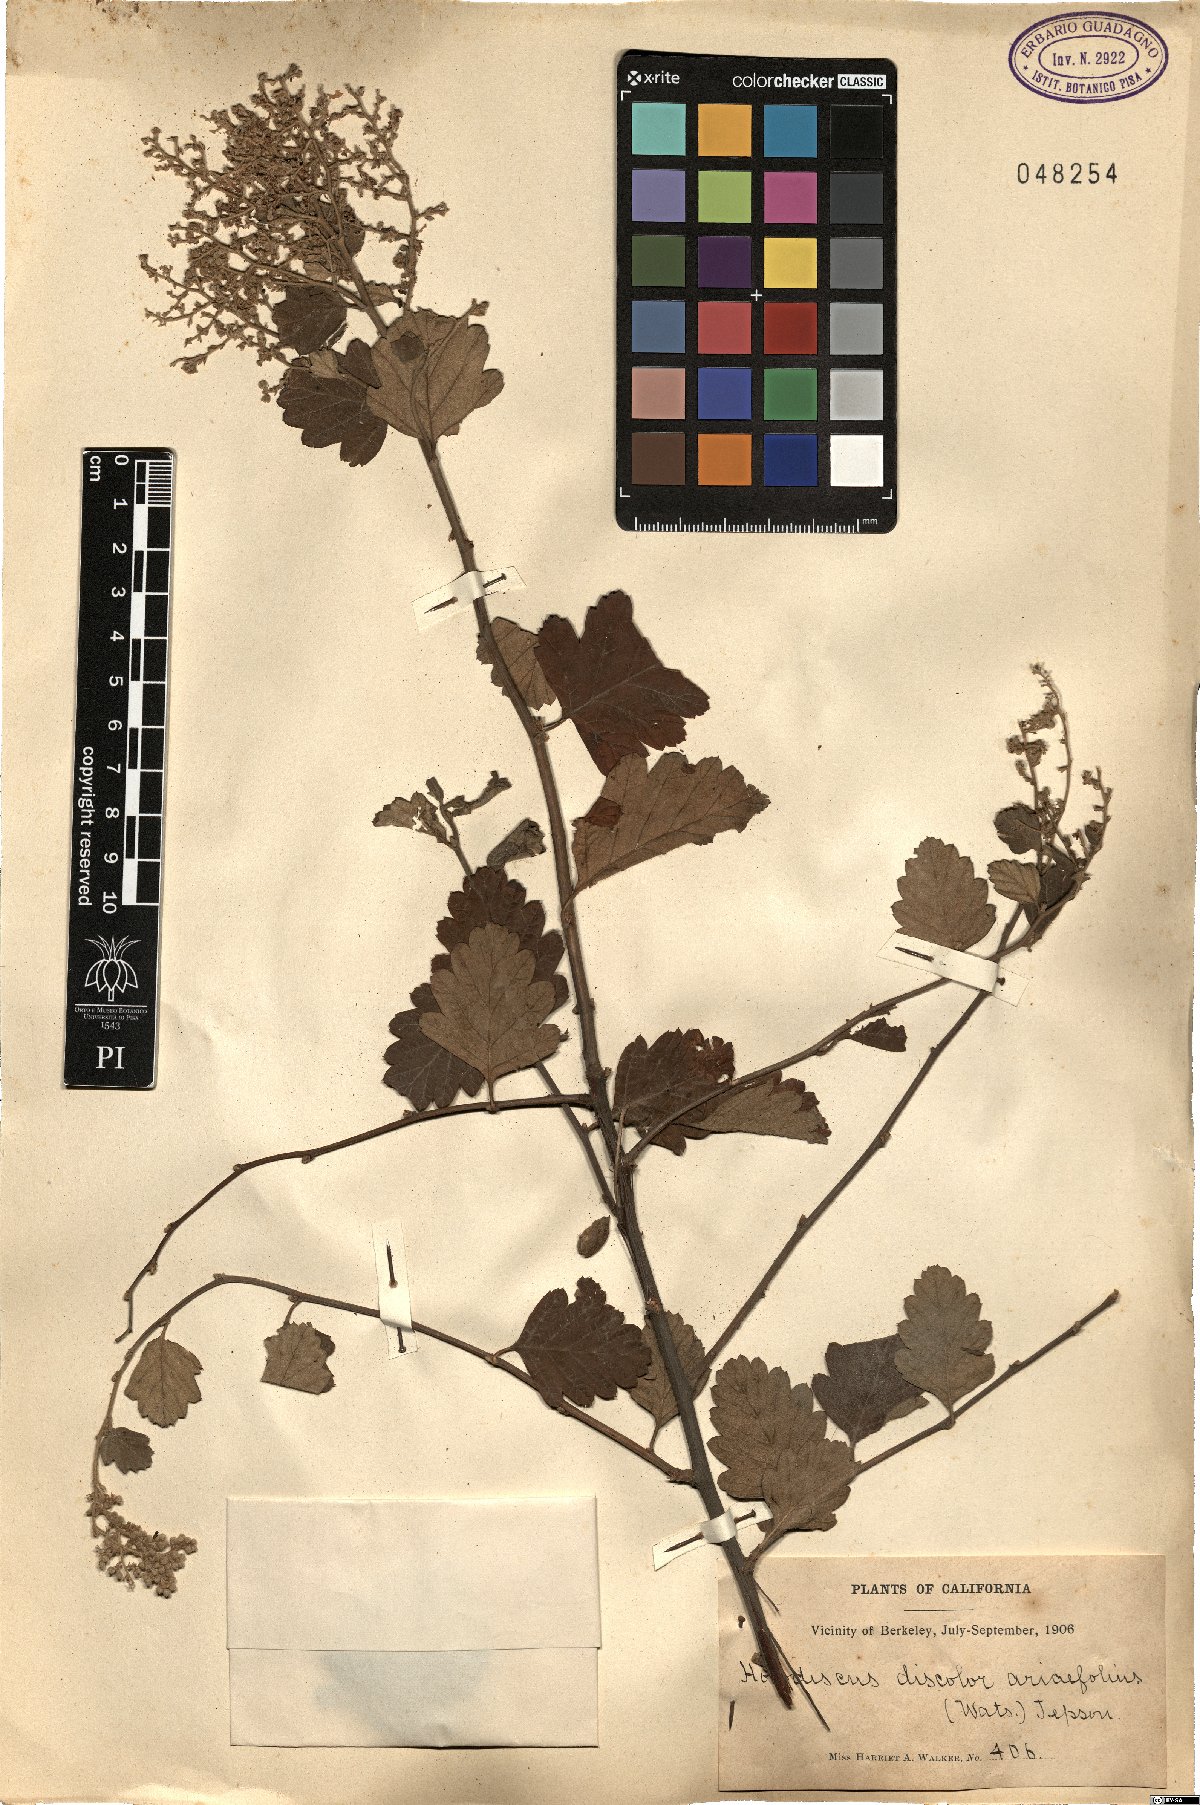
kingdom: Plantae
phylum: Tracheophyta
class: Magnoliopsida
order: Rosales
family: Rosaceae
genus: Holodiscus
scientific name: Holodiscus discolor
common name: Oceanspray
